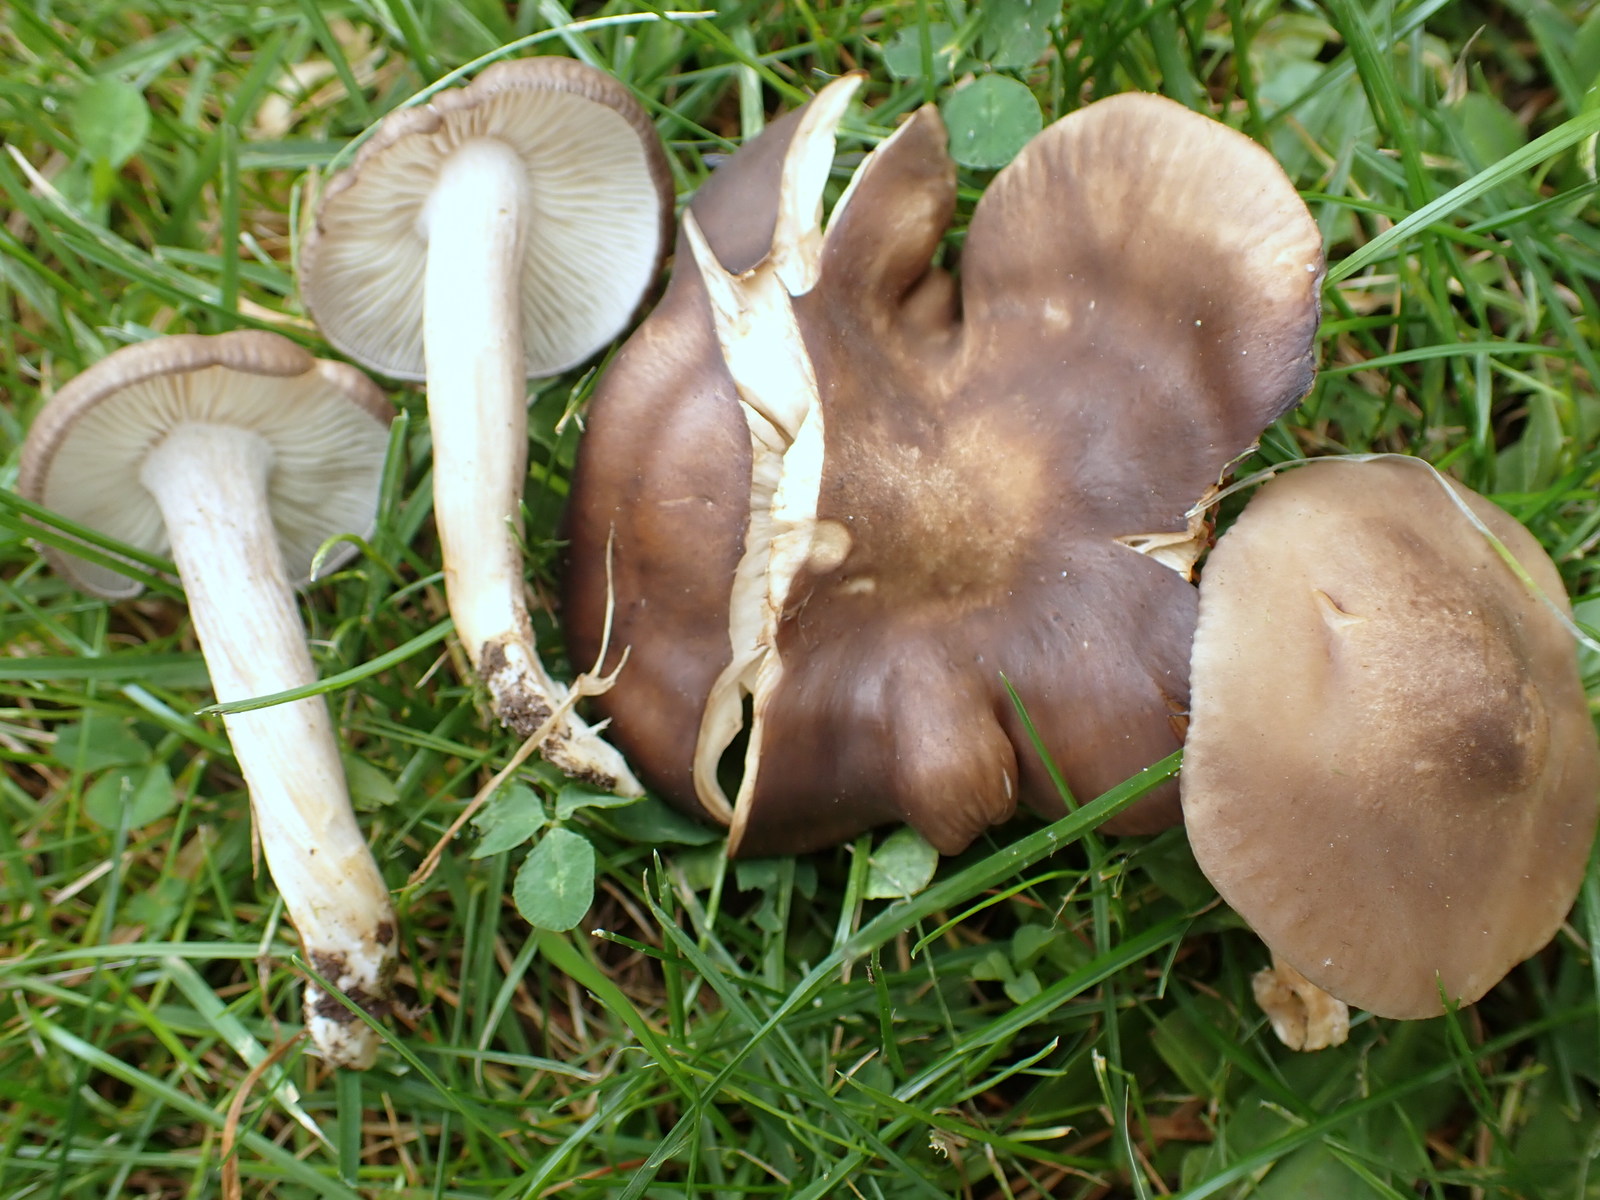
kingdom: Fungi
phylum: Basidiomycota
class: Agaricomycetes
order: Agaricales
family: Lyophyllaceae
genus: Lyophyllum
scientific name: Lyophyllum decastes
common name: Clustered domecap
